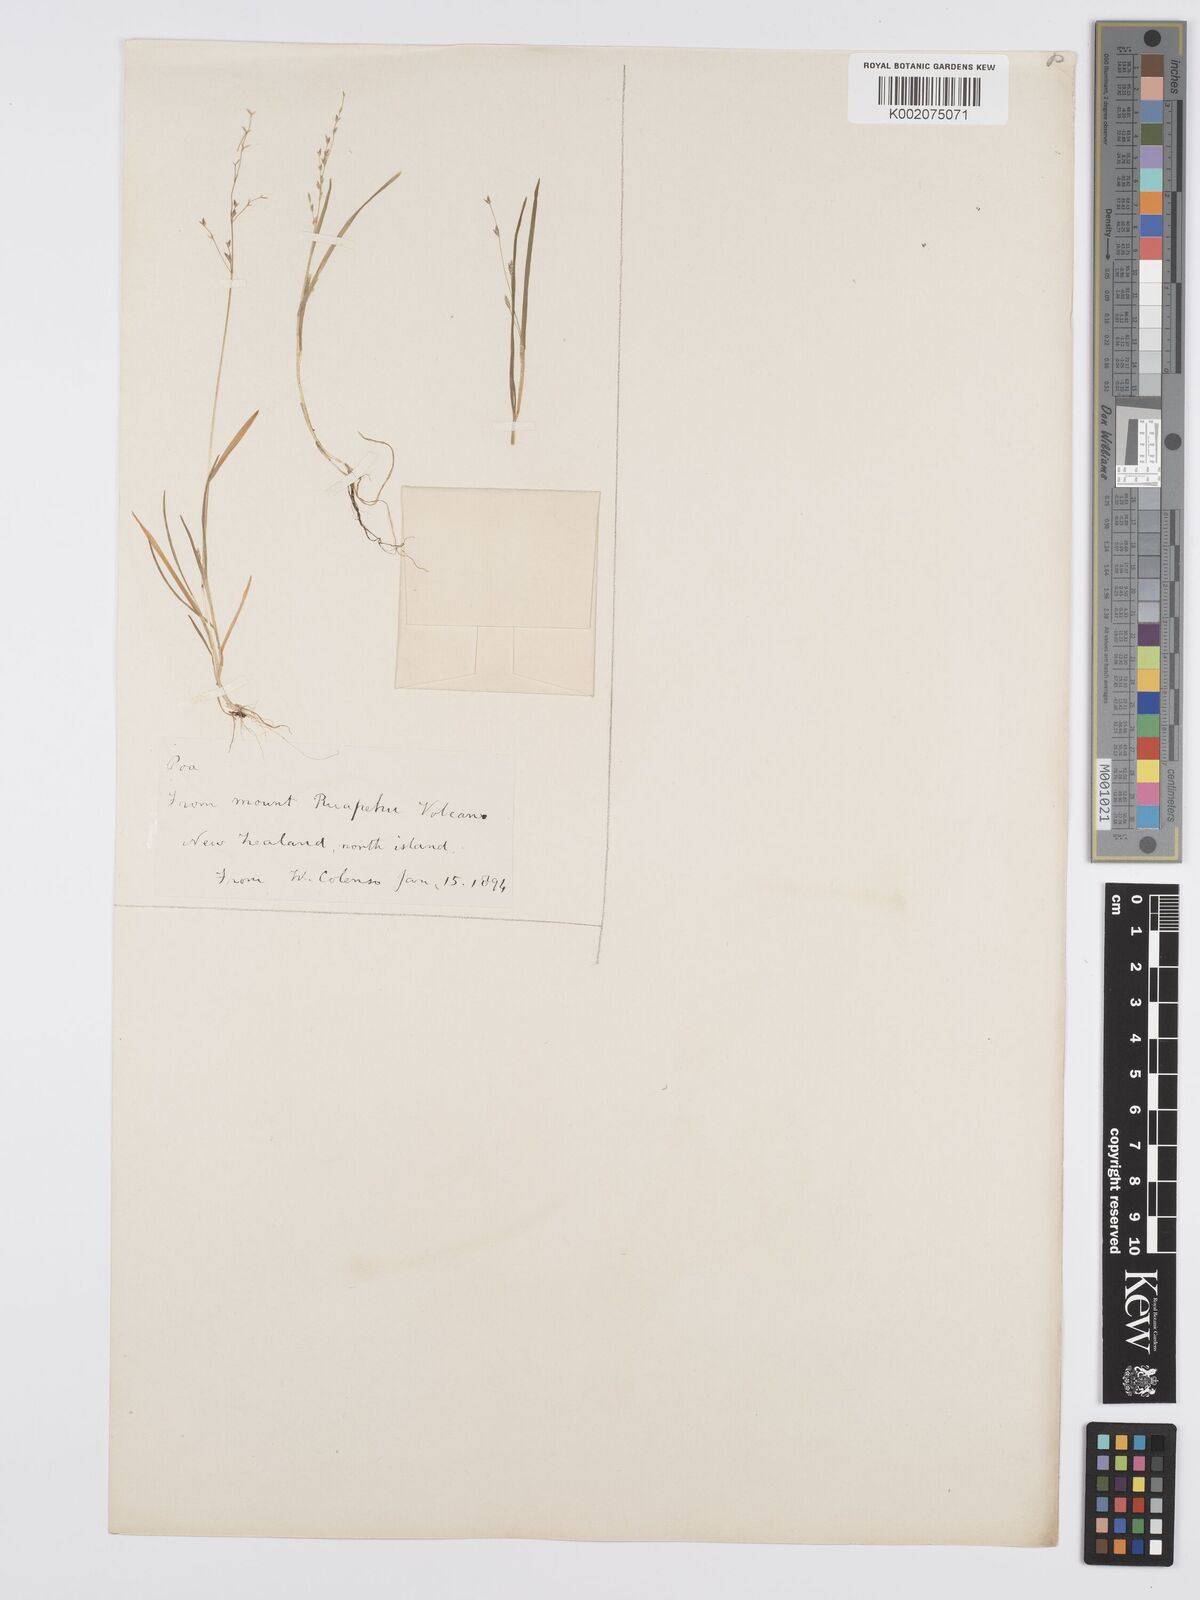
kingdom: Plantae
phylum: Tracheophyta
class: Liliopsida
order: Poales
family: Poaceae
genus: Poa
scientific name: Poa breviglumis
